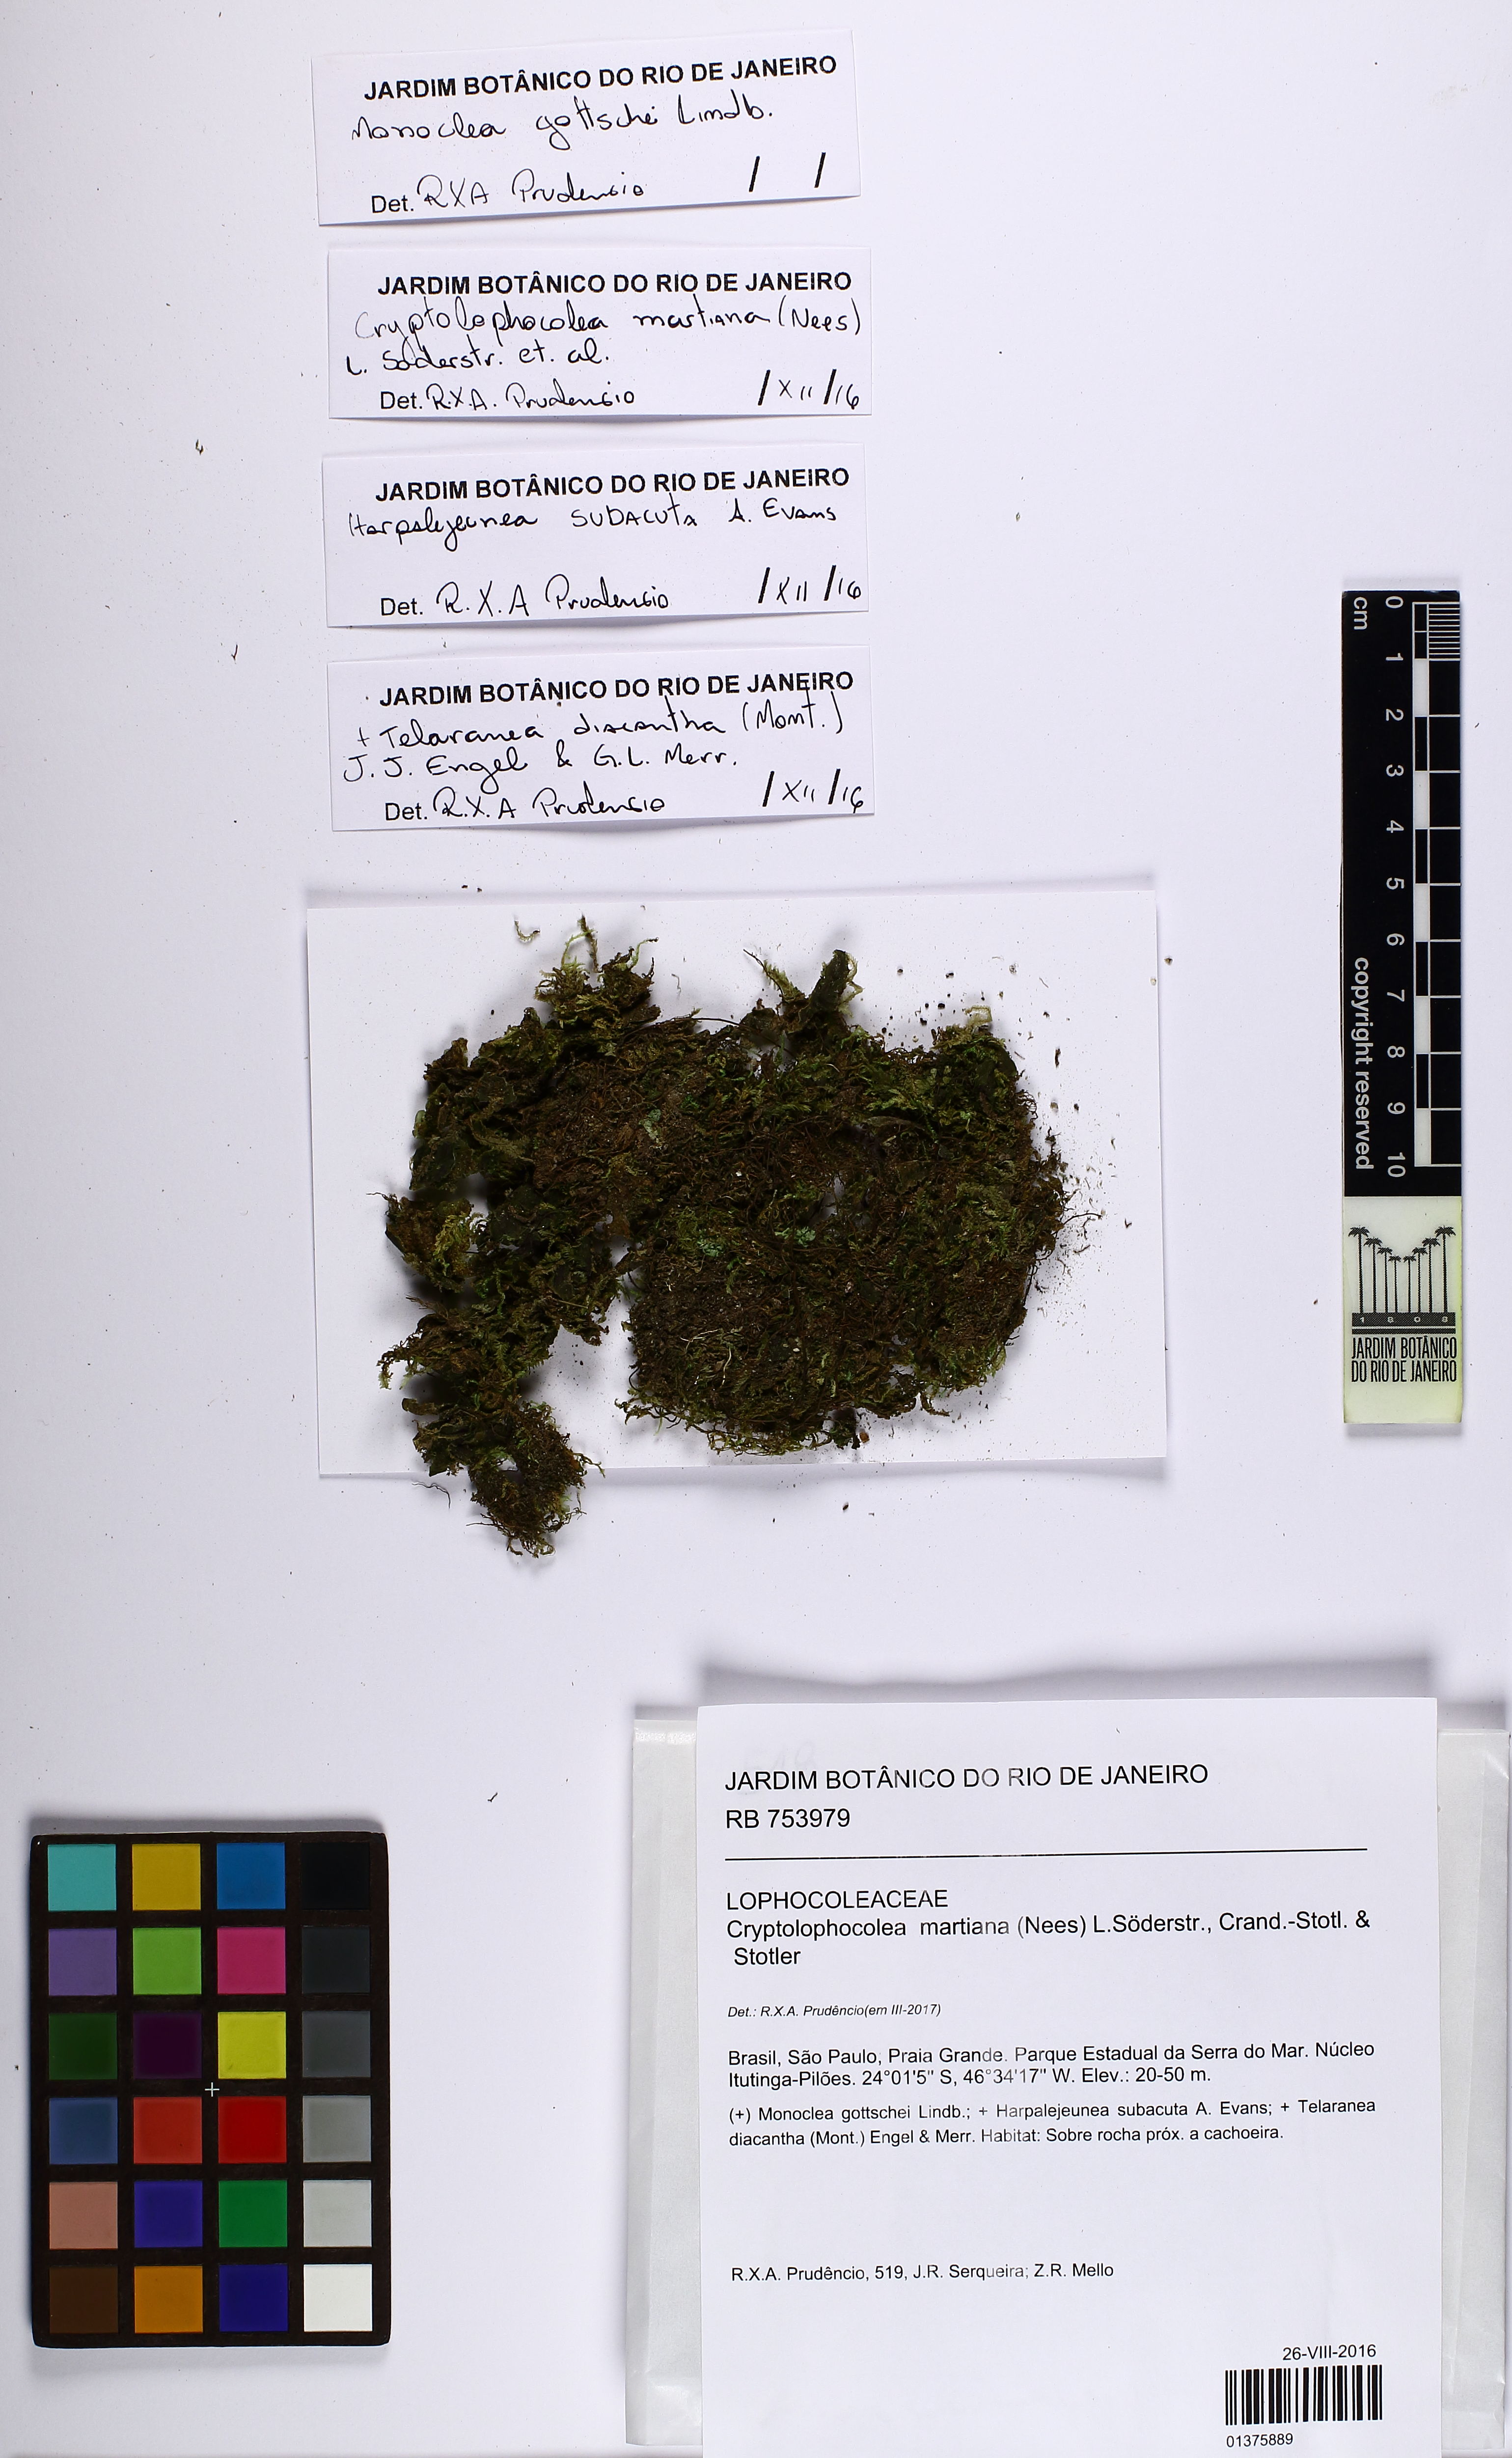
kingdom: Plantae
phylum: Marchantiophyta
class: Jungermanniopsida
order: Jungermanniales
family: Lophocoleaceae
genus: Cryptolophocolea
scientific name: Cryptolophocolea martiana
